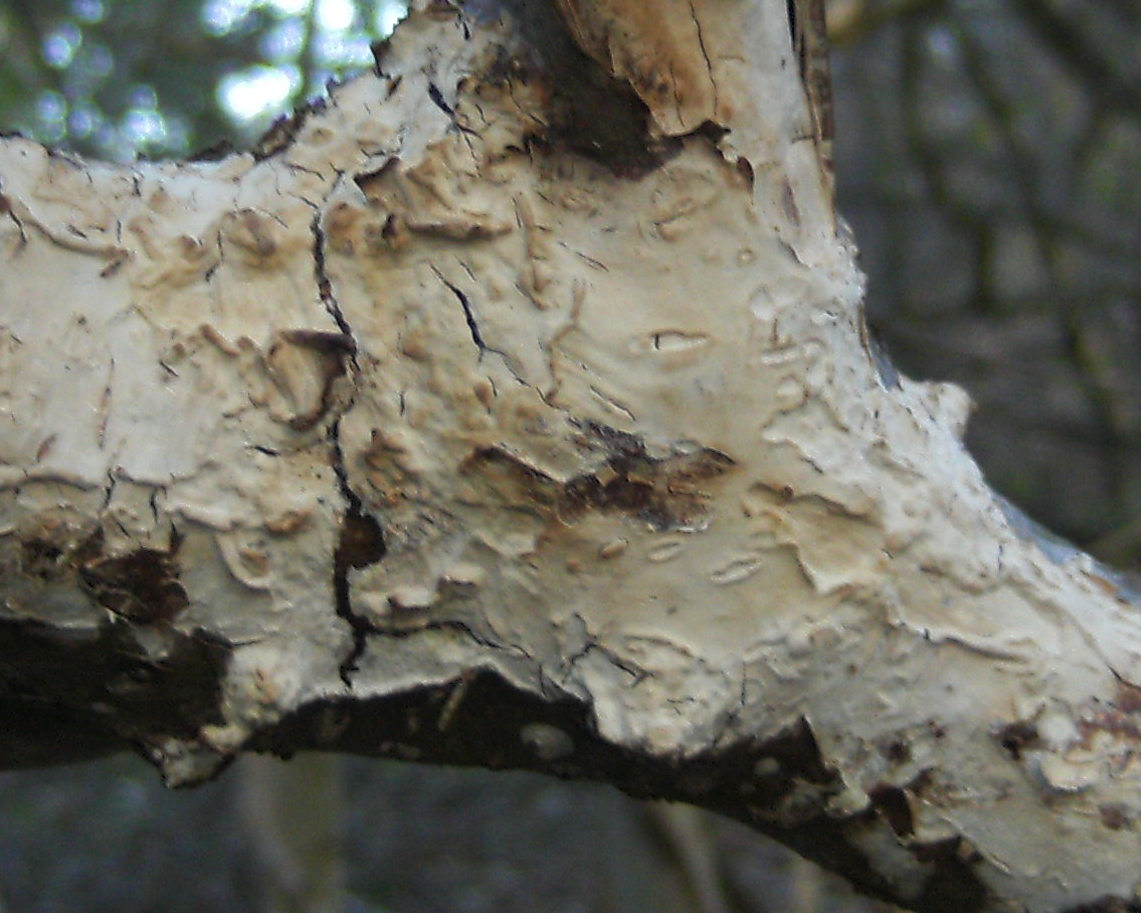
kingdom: Fungi
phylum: Basidiomycota
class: Agaricomycetes
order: Agaricales
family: Radulomycetaceae
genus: Radulomyces
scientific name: Radulomyces confluens
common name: glat naftalinskind
